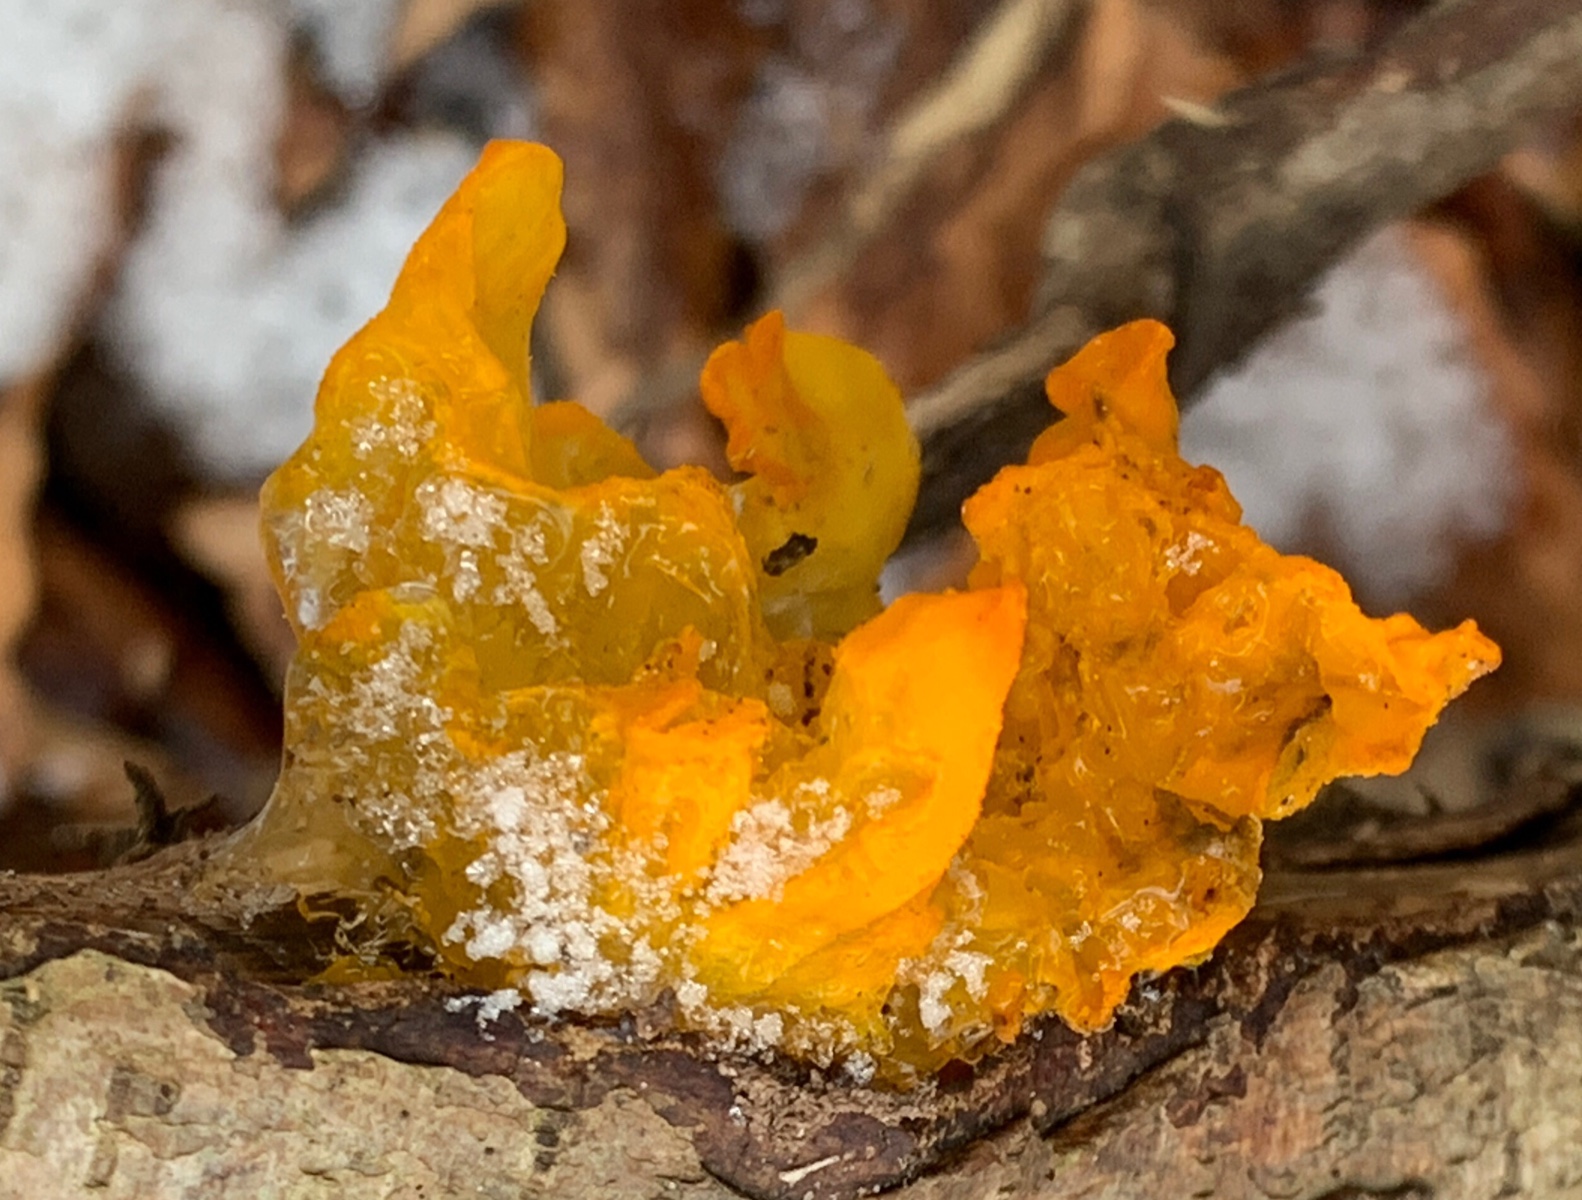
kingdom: Fungi
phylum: Basidiomycota
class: Tremellomycetes
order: Tremellales
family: Tremellaceae
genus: Tremella
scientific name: Tremella mesenterica
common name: gul bævresvamp
